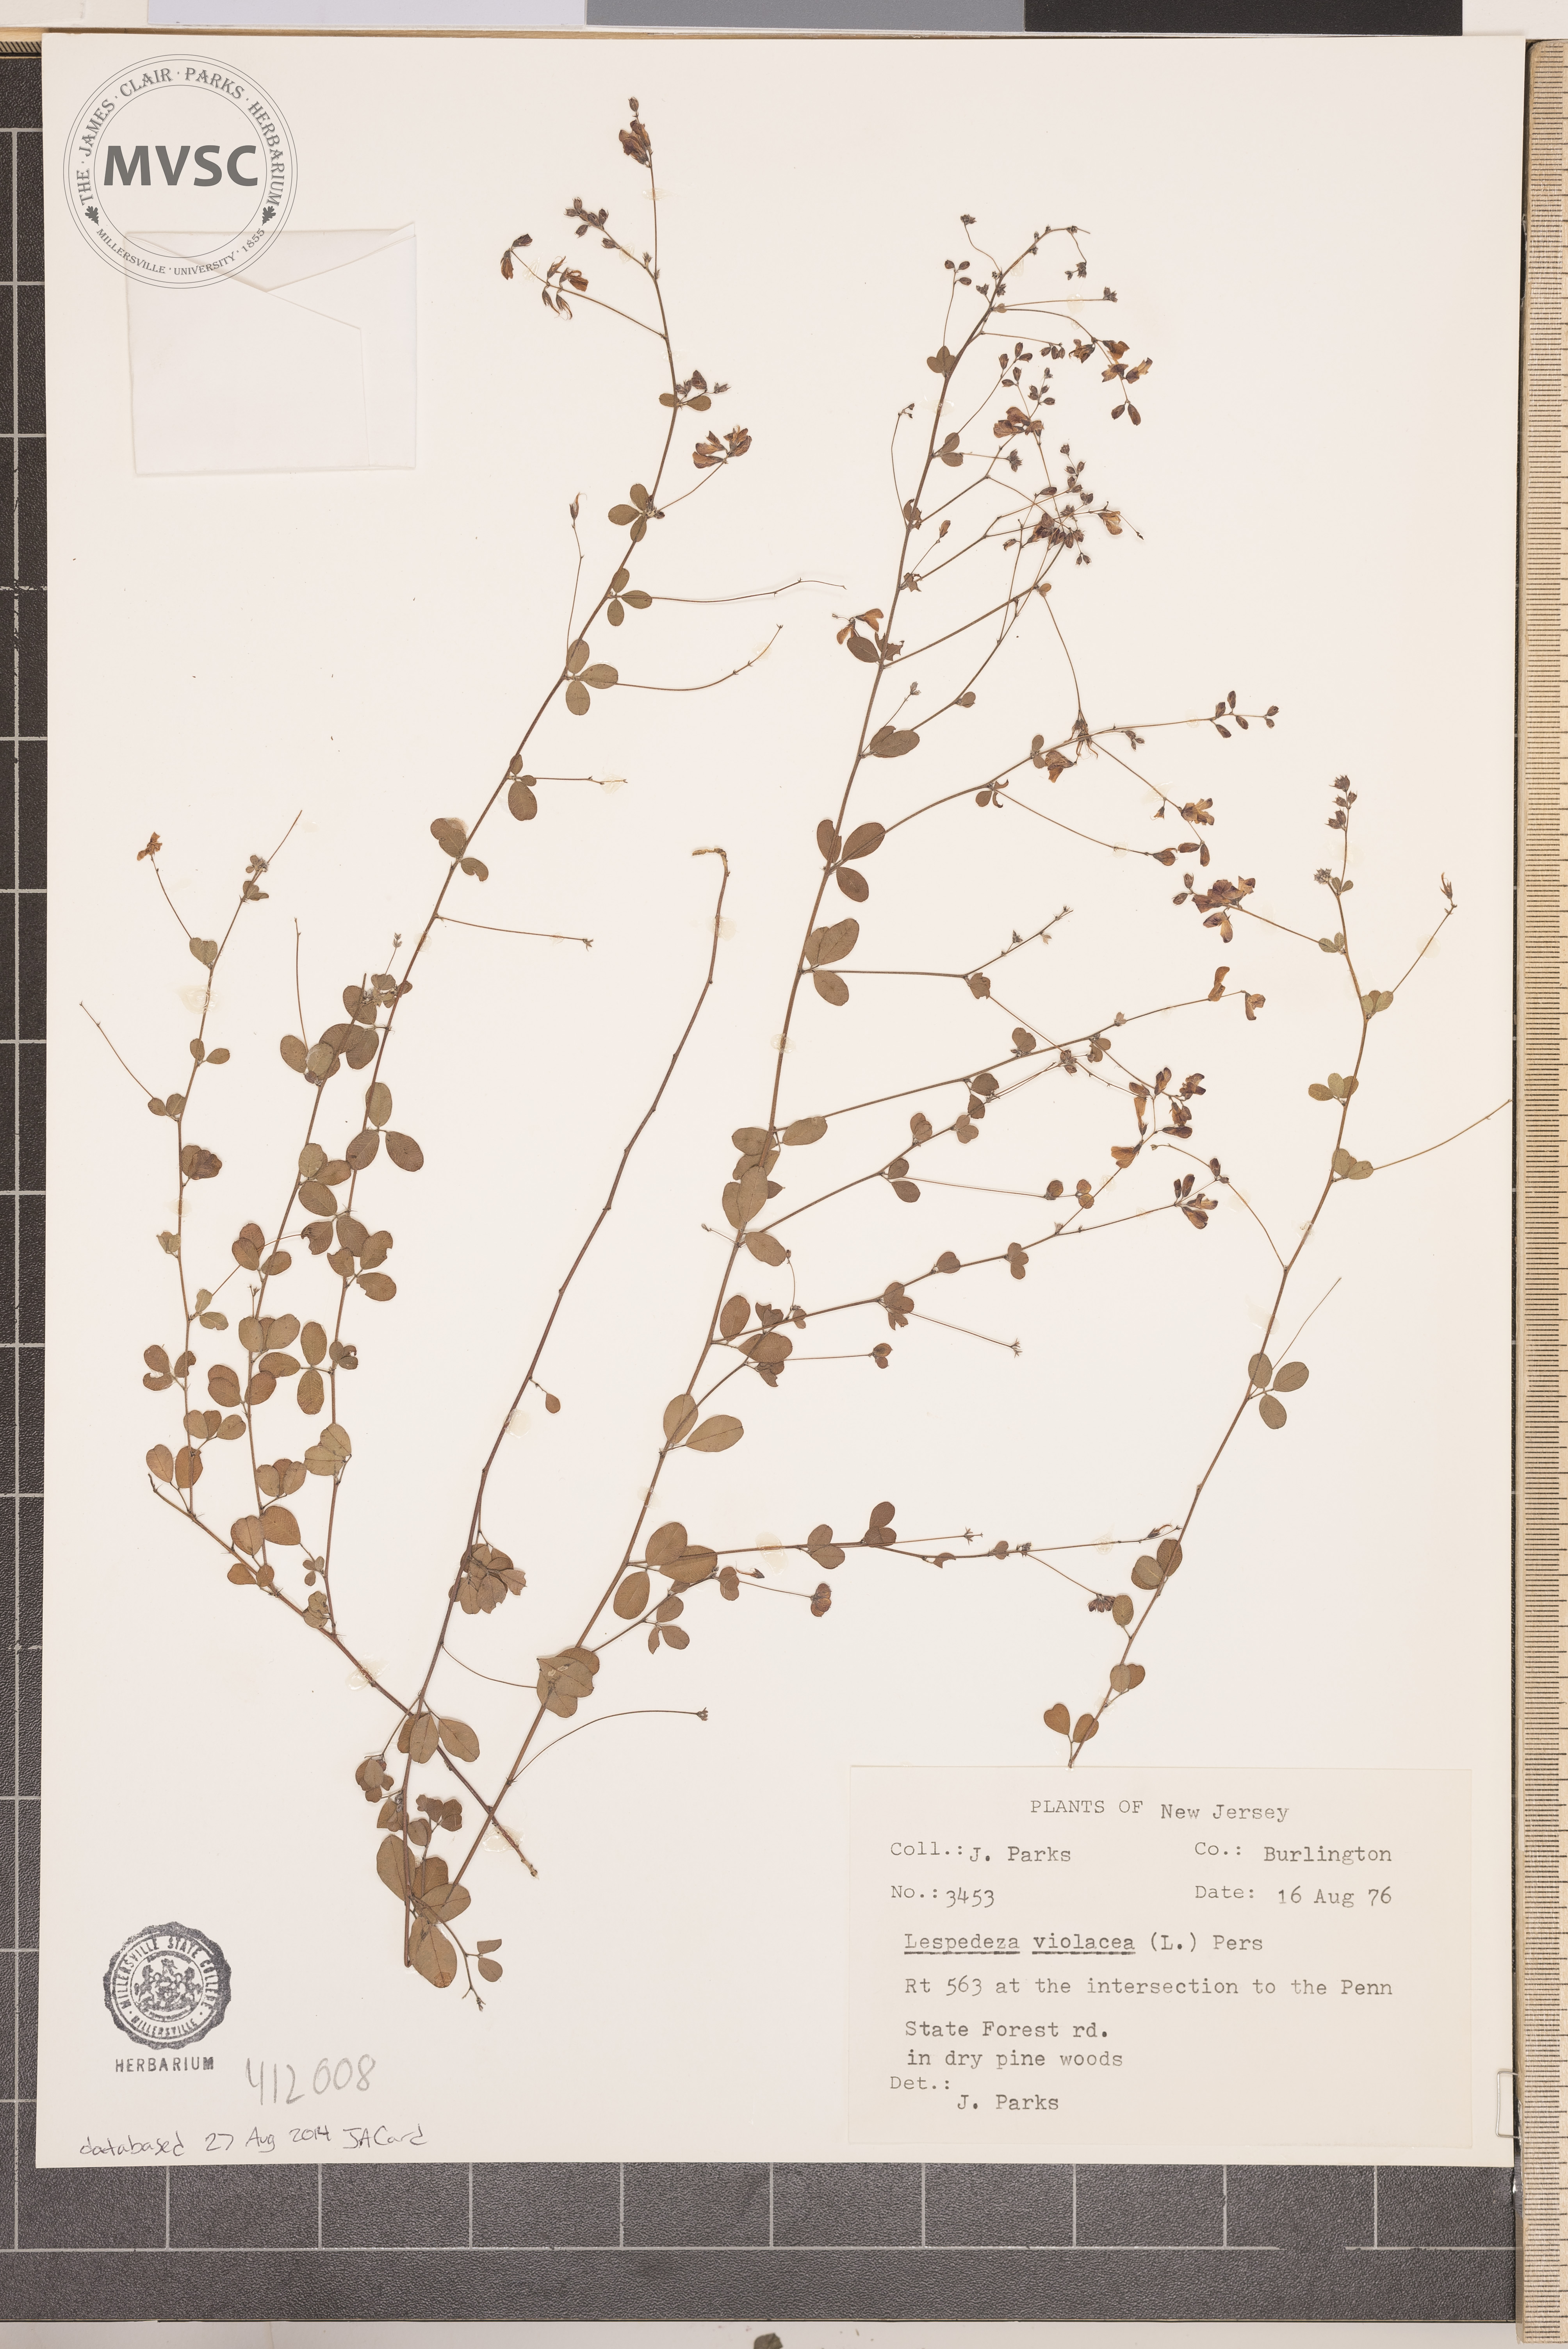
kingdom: Plantae
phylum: Tracheophyta
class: Magnoliopsida
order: Fabales
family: Fabaceae
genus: Lespedeza
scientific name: Lespedeza violacea
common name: Wand bush-clover
